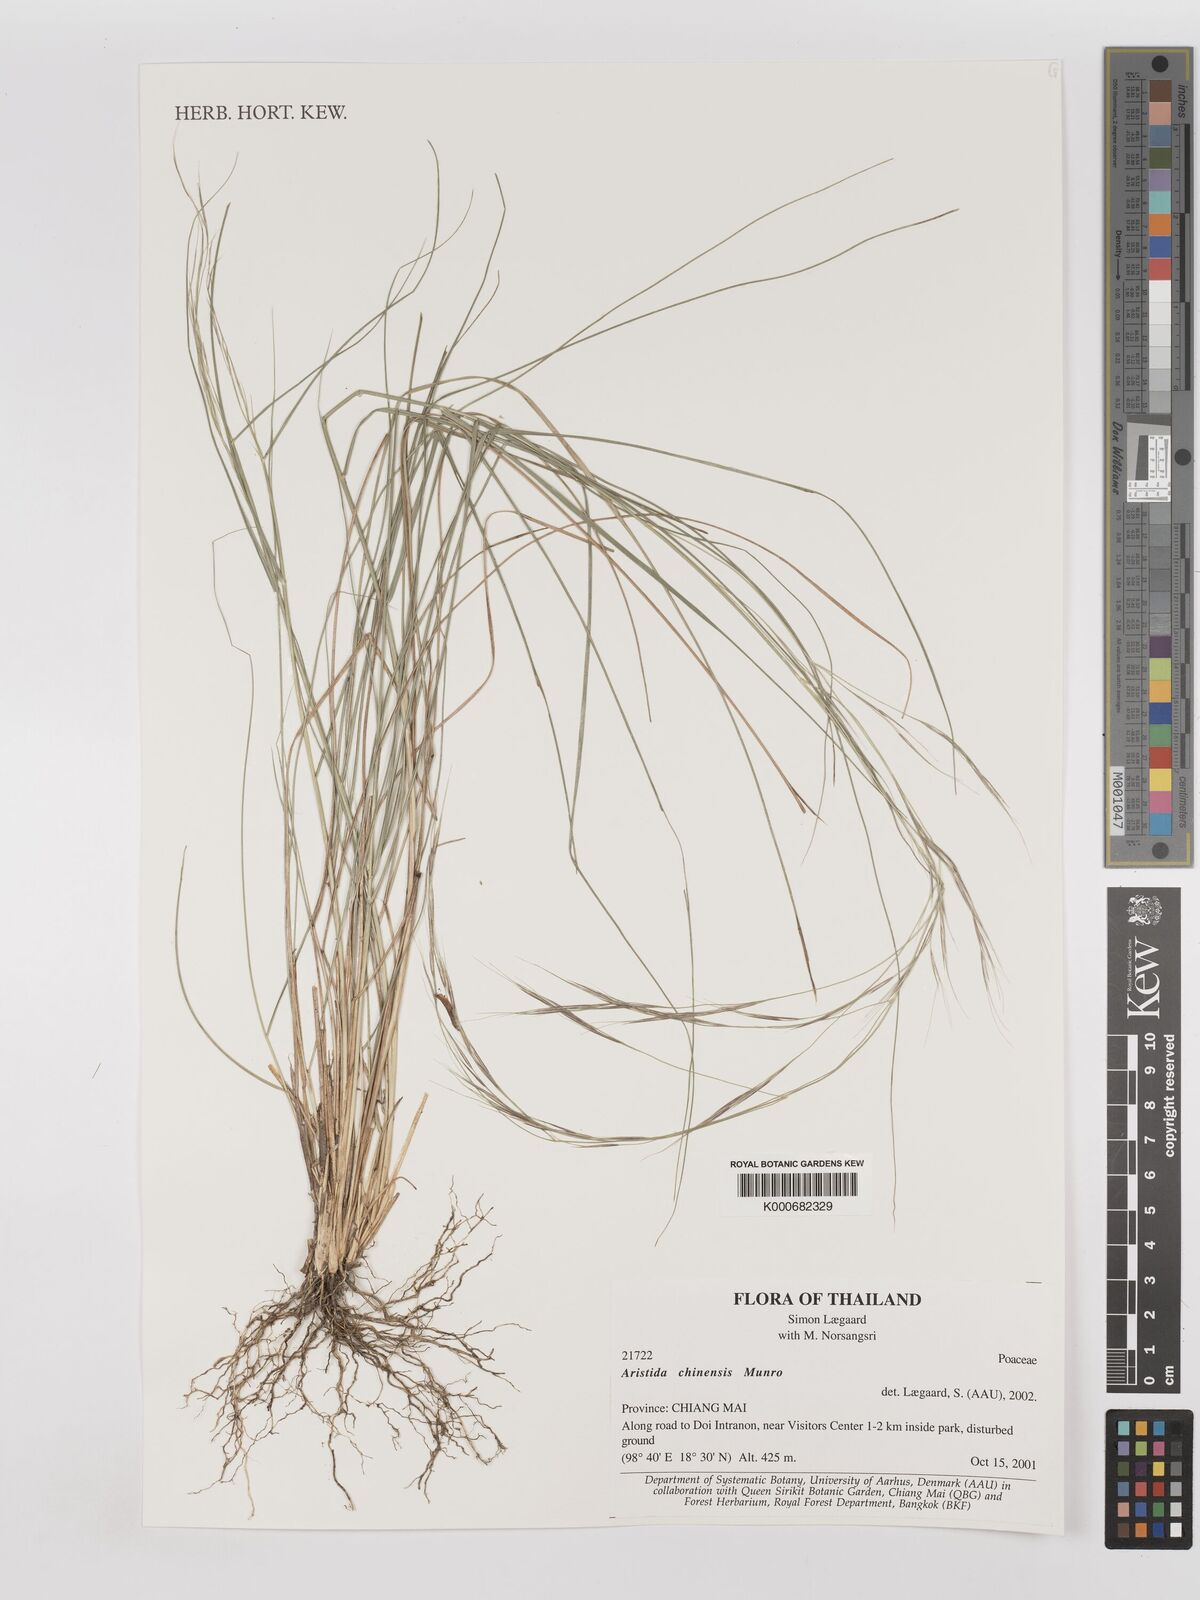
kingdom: Plantae
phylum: Tracheophyta
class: Liliopsida
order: Poales
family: Poaceae
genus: Aristida
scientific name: Aristida chinensis
